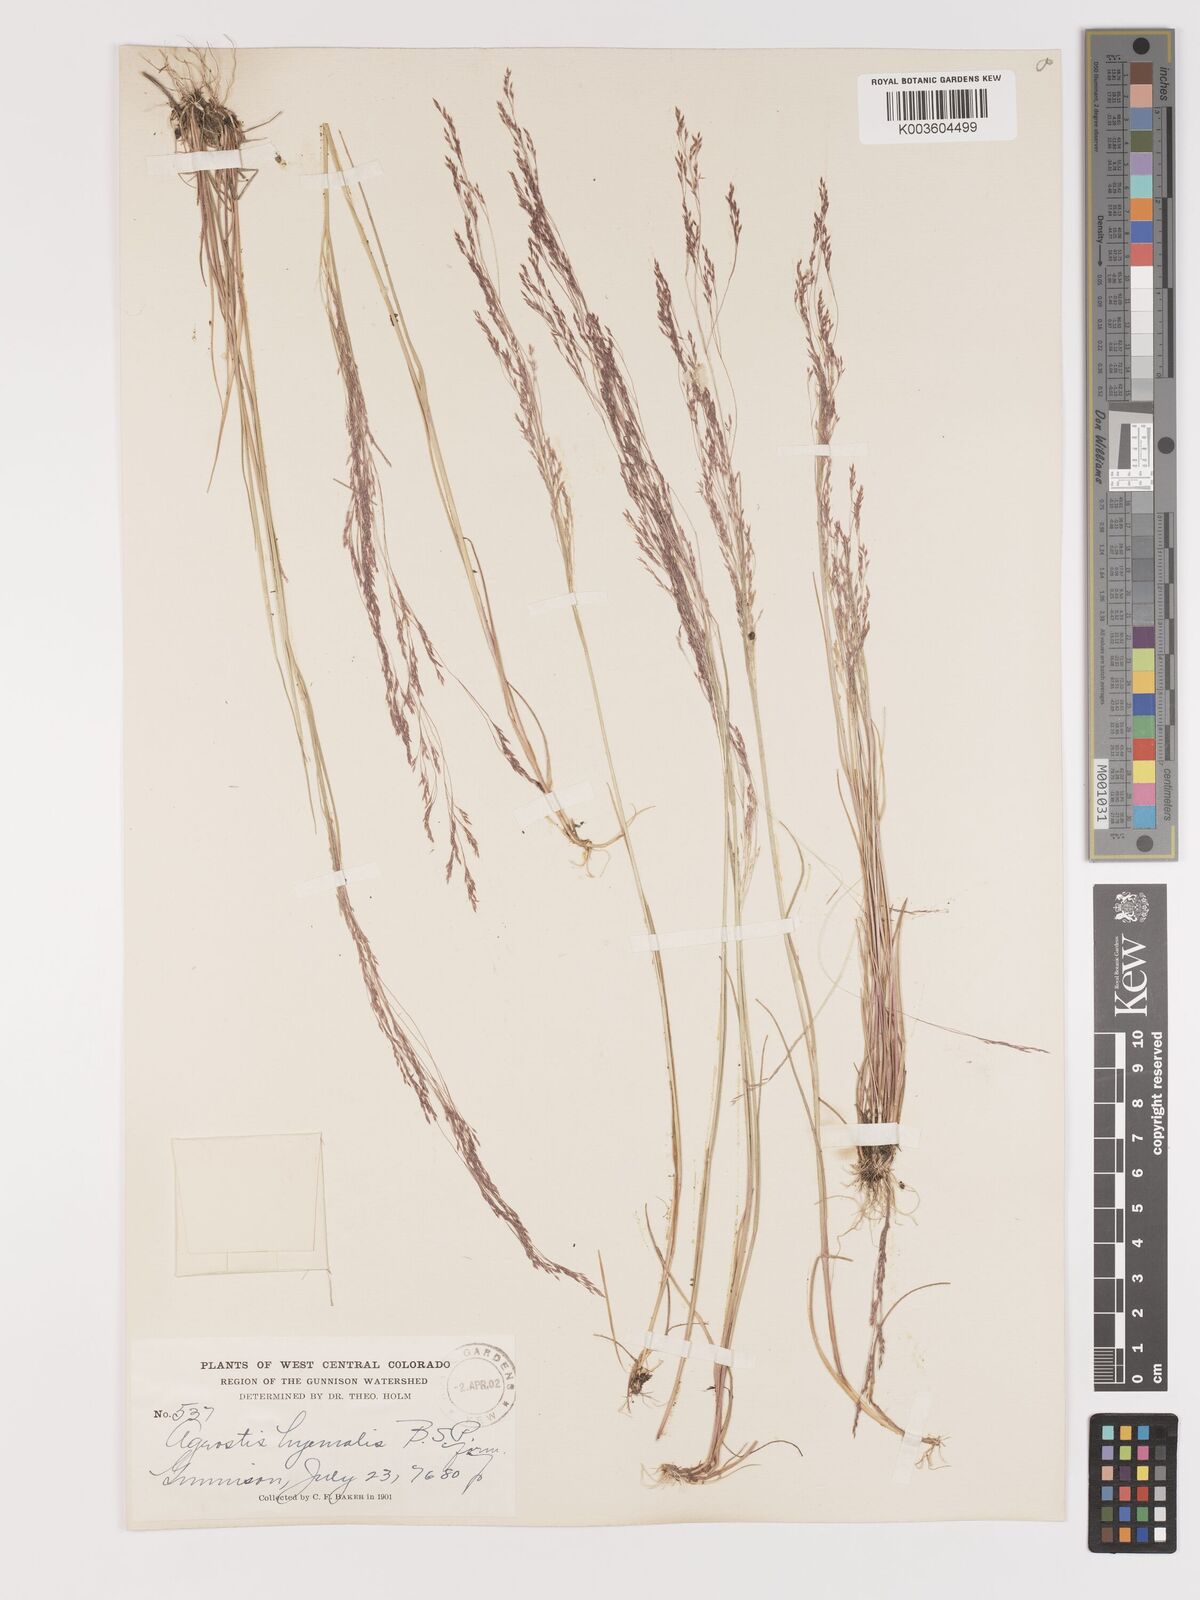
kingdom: Plantae
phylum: Tracheophyta
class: Liliopsida
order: Poales
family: Poaceae
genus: Agrostis
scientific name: Agrostis hyemalis
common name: Small bent
